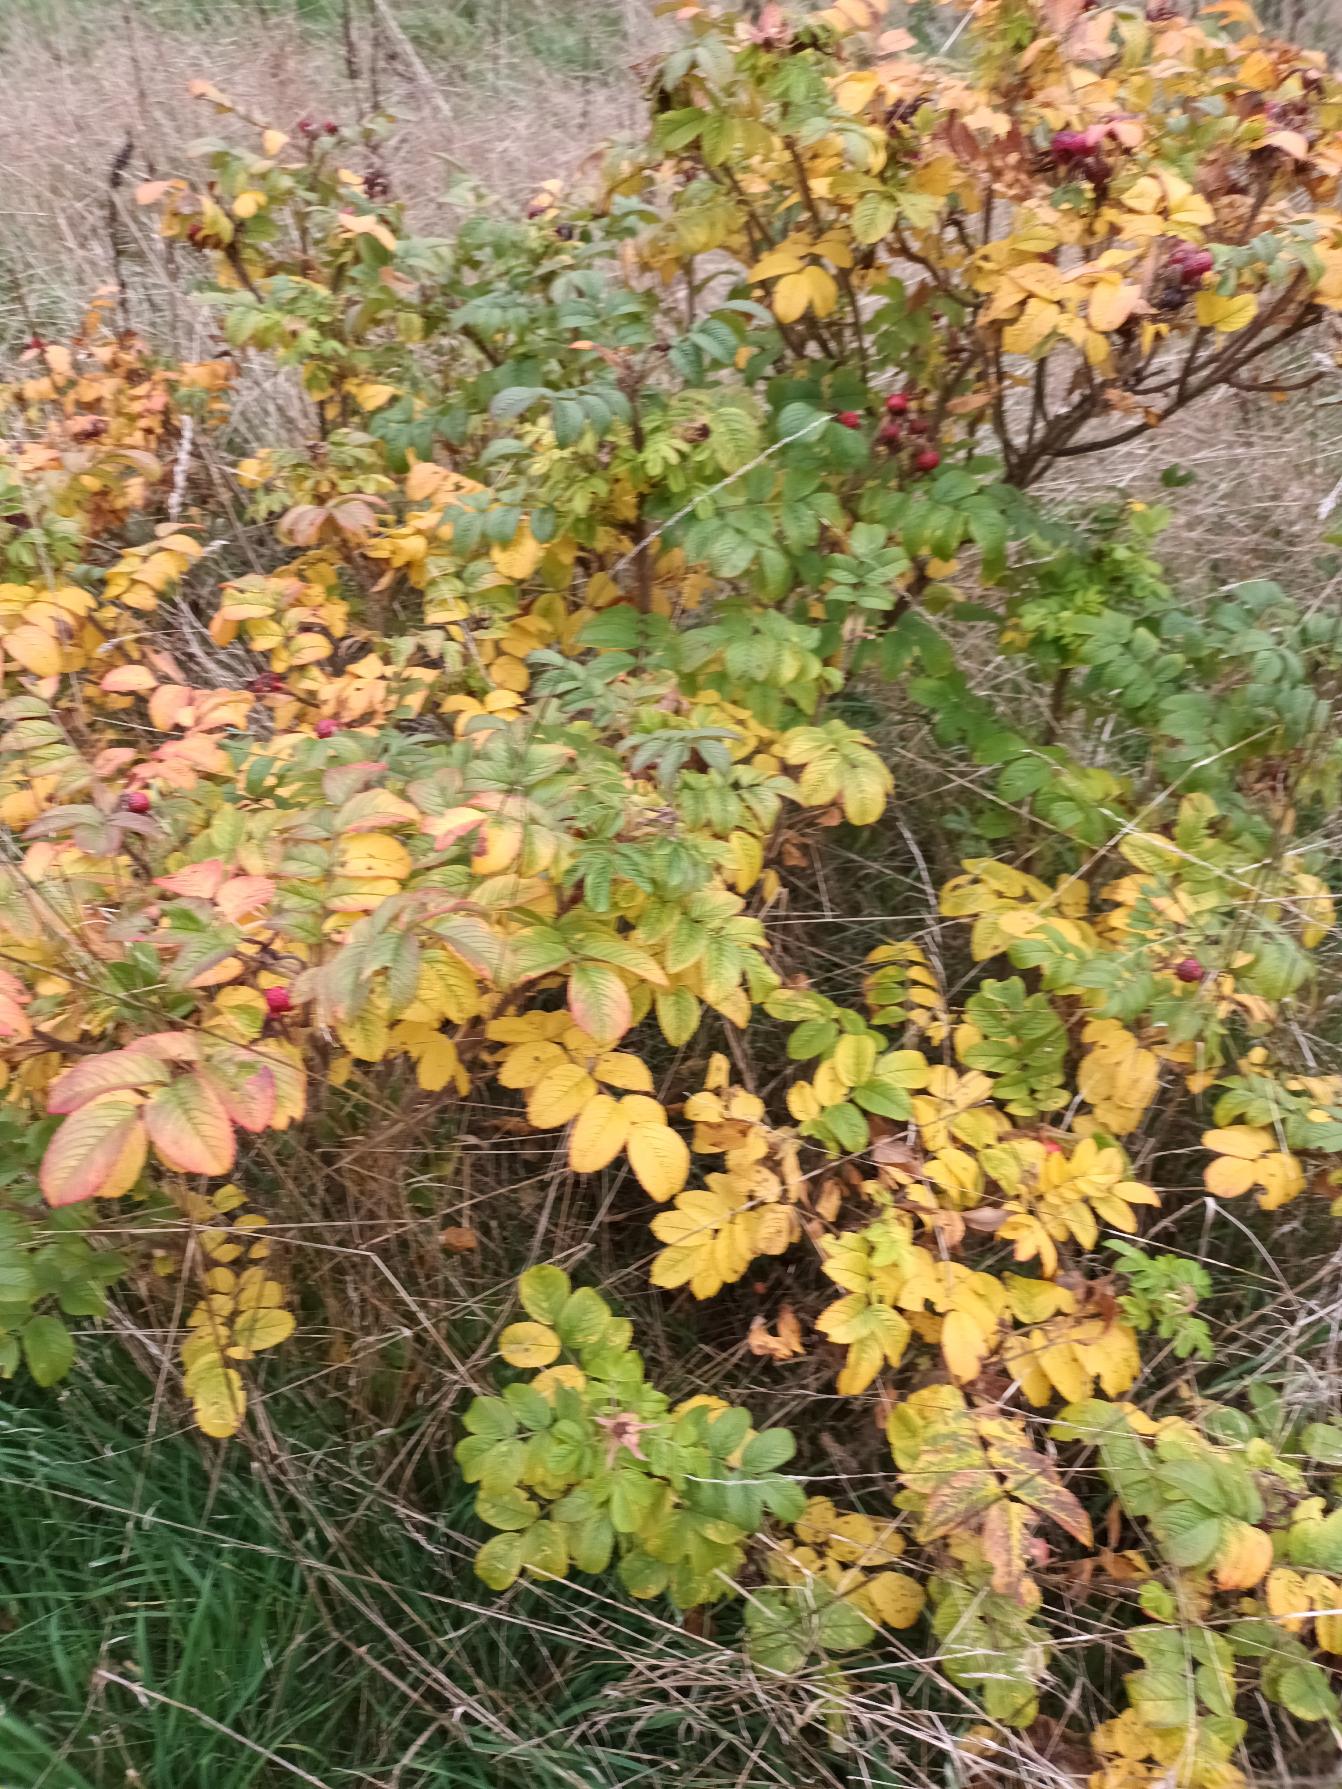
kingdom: Plantae
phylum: Tracheophyta
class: Magnoliopsida
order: Rosales
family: Rosaceae
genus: Rosa
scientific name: Rosa rugosa
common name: Rynket rose
